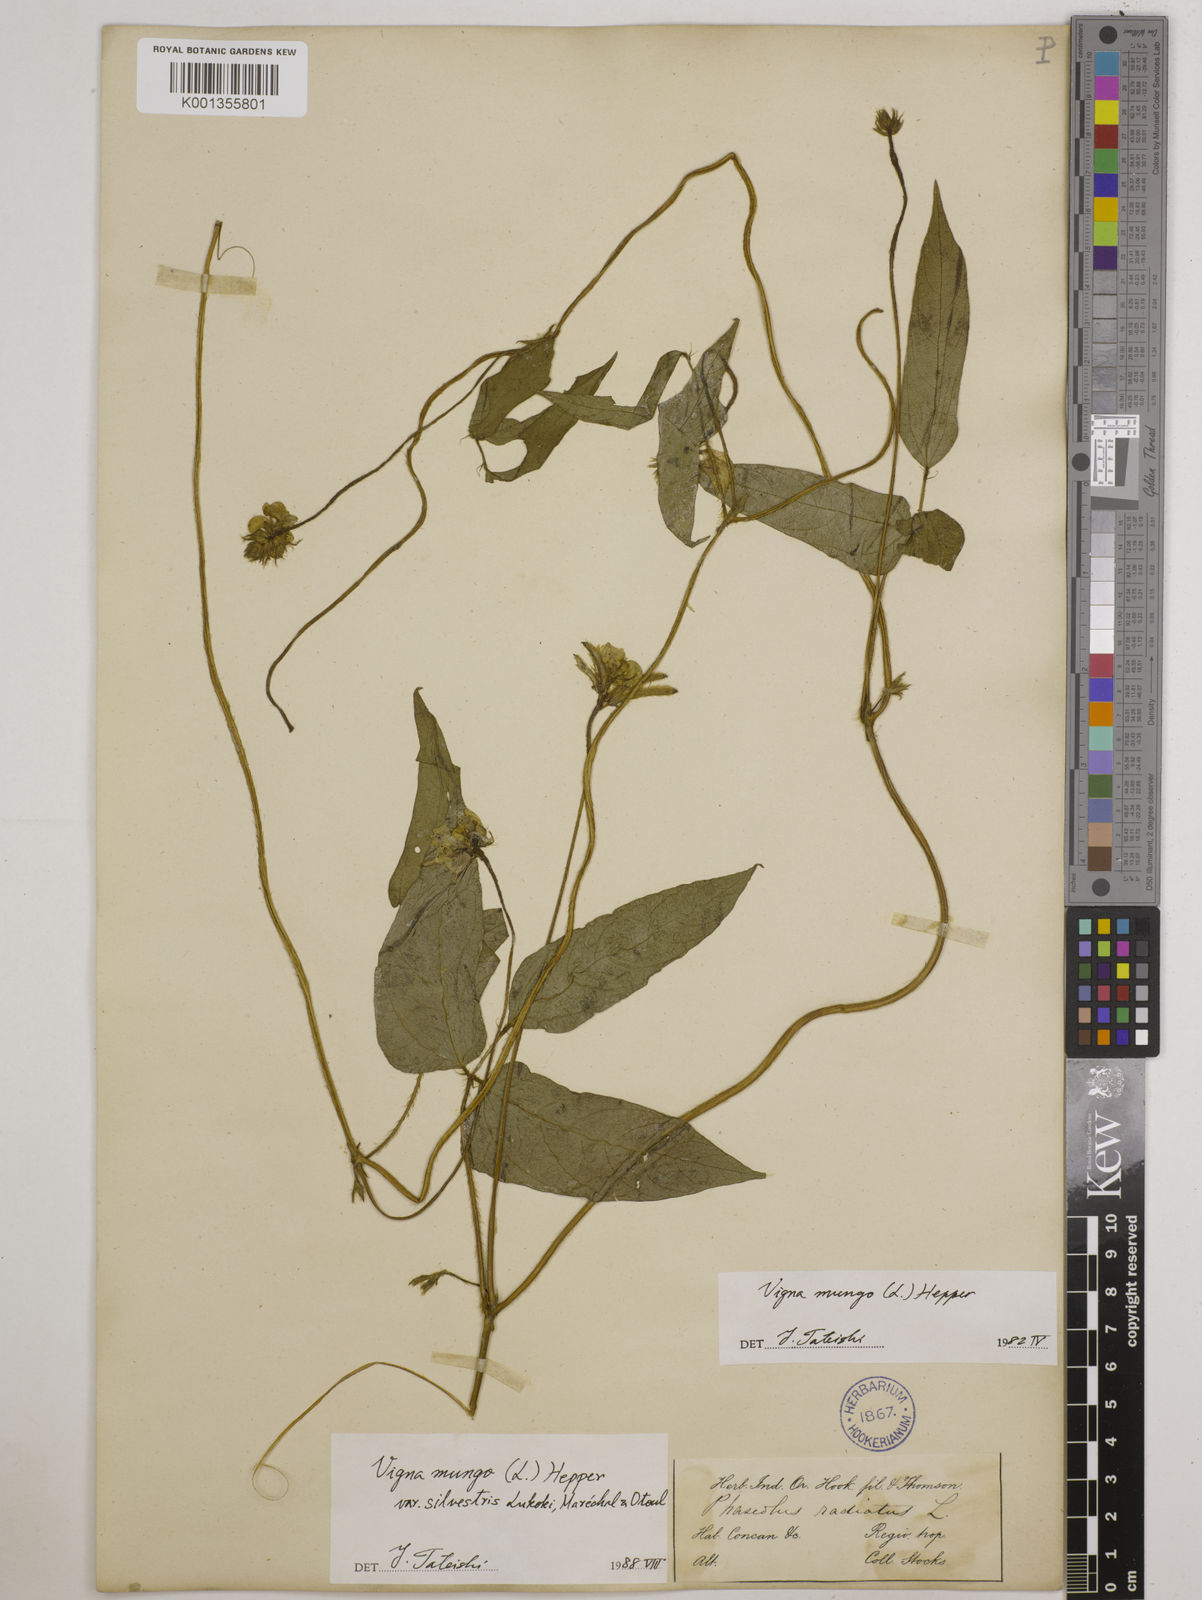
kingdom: Plantae
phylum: Tracheophyta
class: Magnoliopsida
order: Fabales
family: Fabaceae
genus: Vigna
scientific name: Vigna mungo
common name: Black gram
